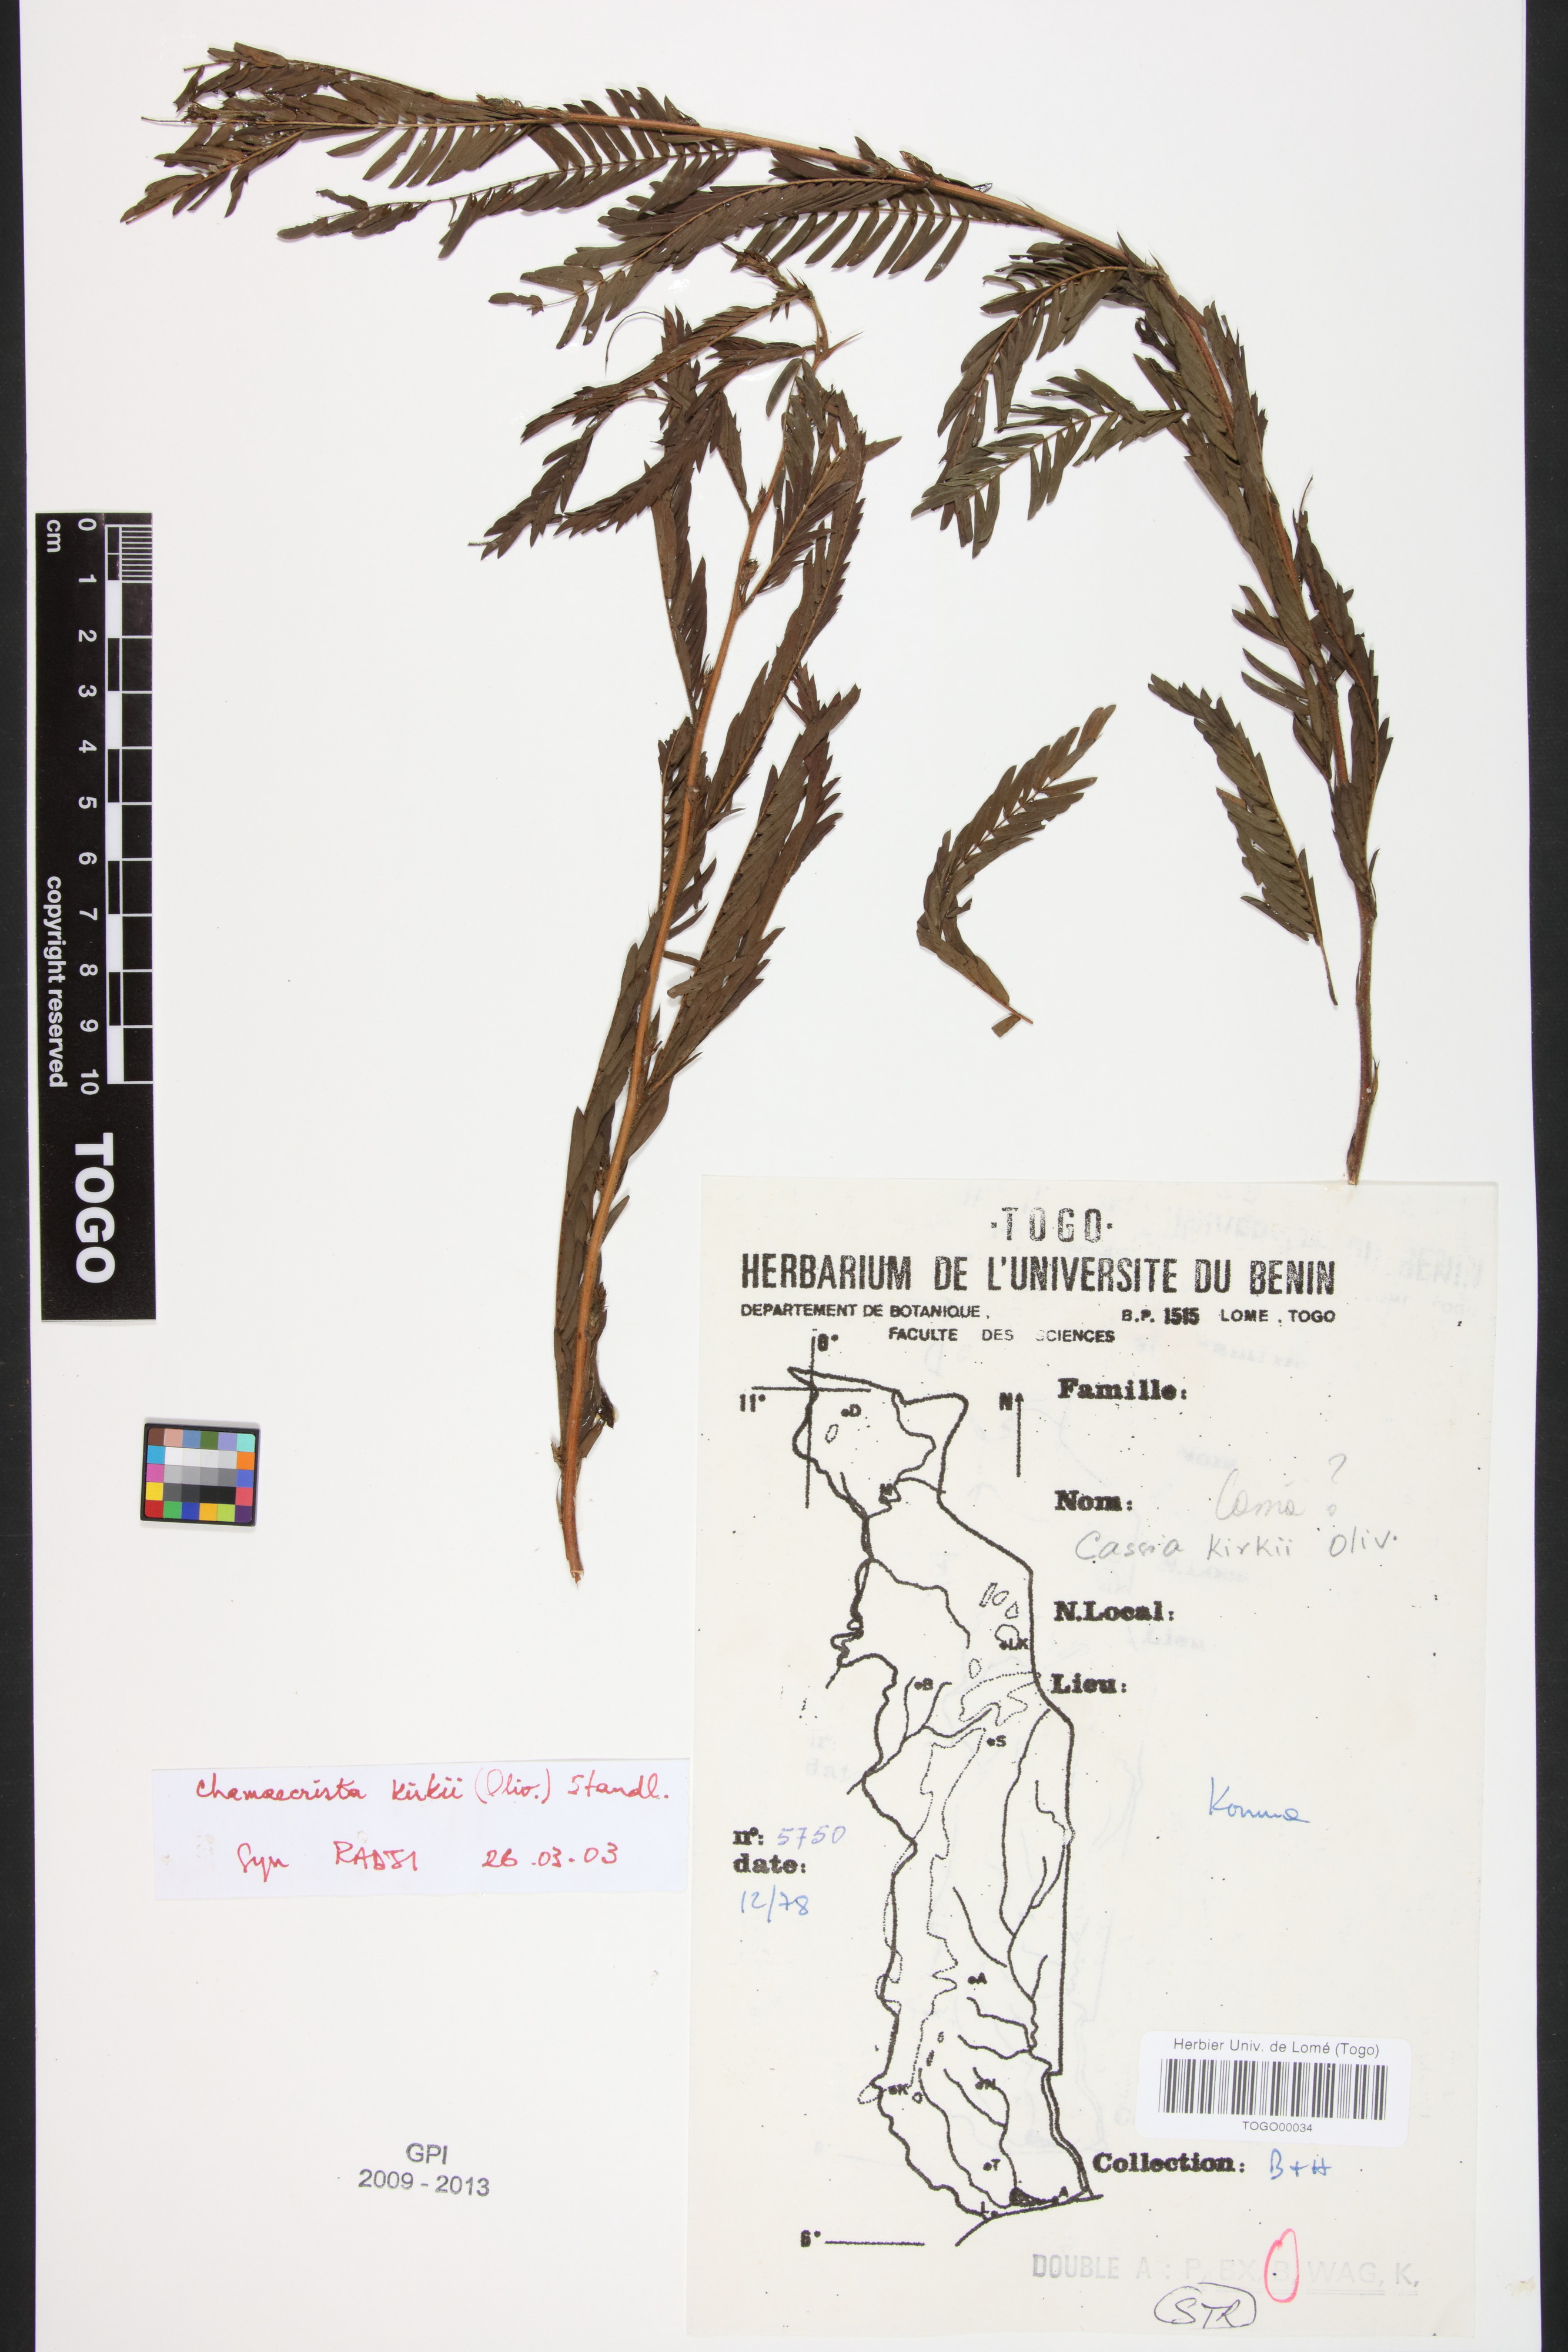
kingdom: Plantae
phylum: Tracheophyta
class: Magnoliopsida
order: Fabales
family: Fabaceae
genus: Chamaecrista
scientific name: Chamaecrista kirkii
